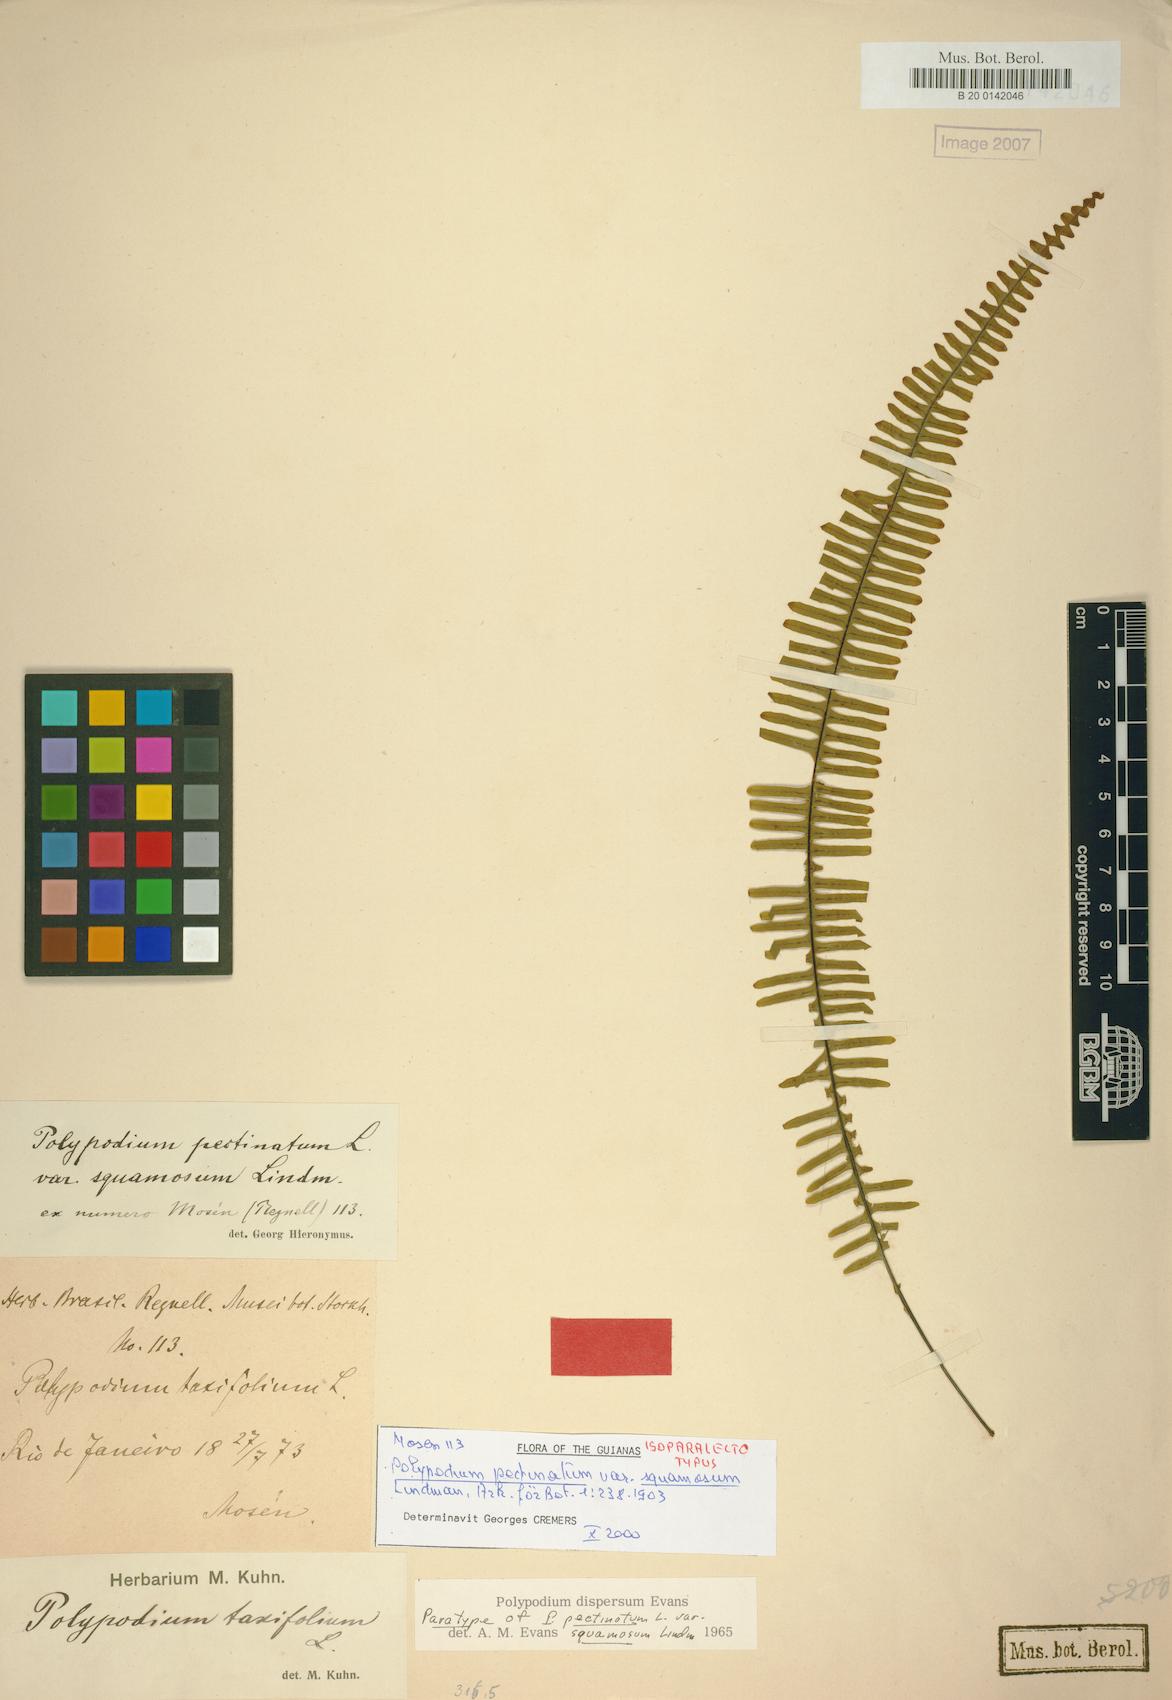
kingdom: Plantae
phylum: Tracheophyta
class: Polypodiopsida
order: Polypodiales
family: Polypodiaceae
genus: Pecluma
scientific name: Pecluma dispersa
